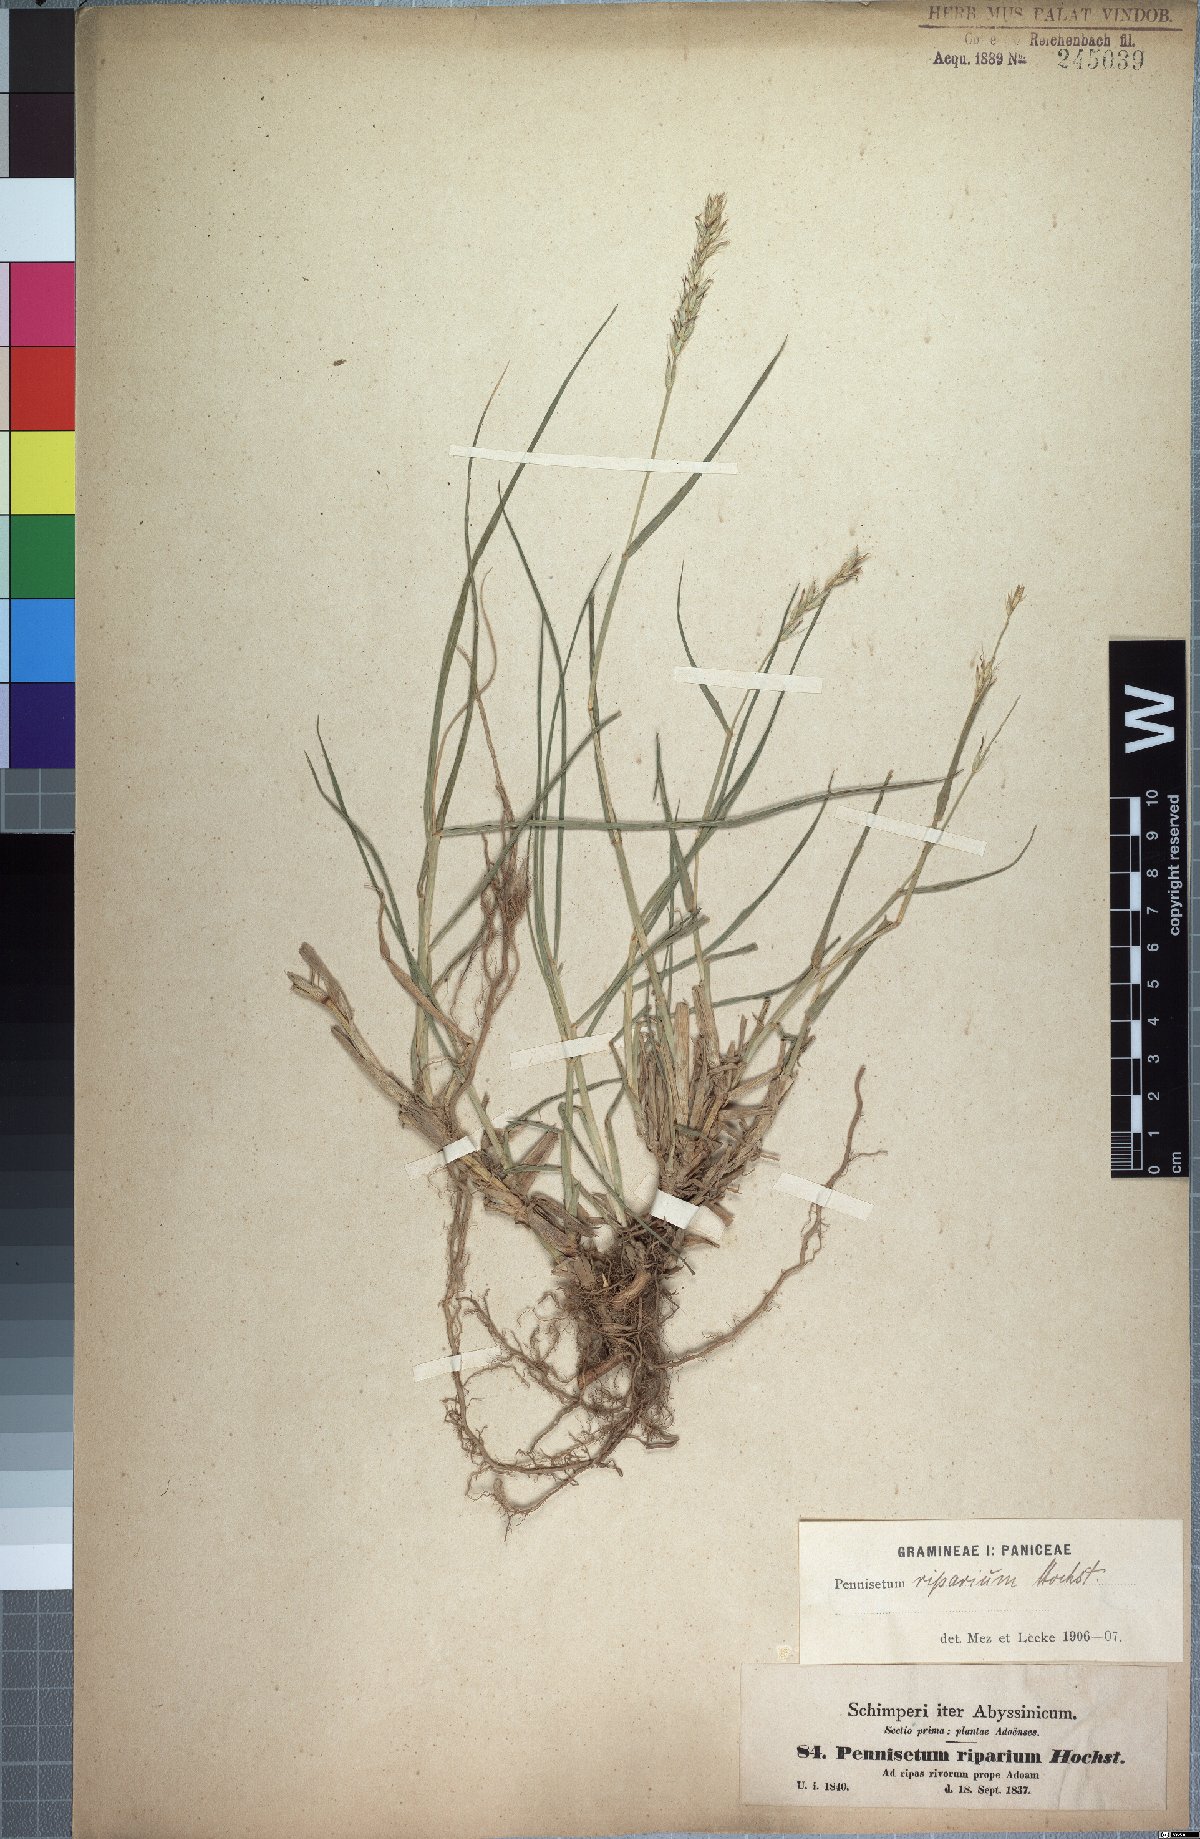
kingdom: Plantae
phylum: Tracheophyta
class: Liliopsida
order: Poales
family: Poaceae
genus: Cenchrus
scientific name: Cenchrus riparius
